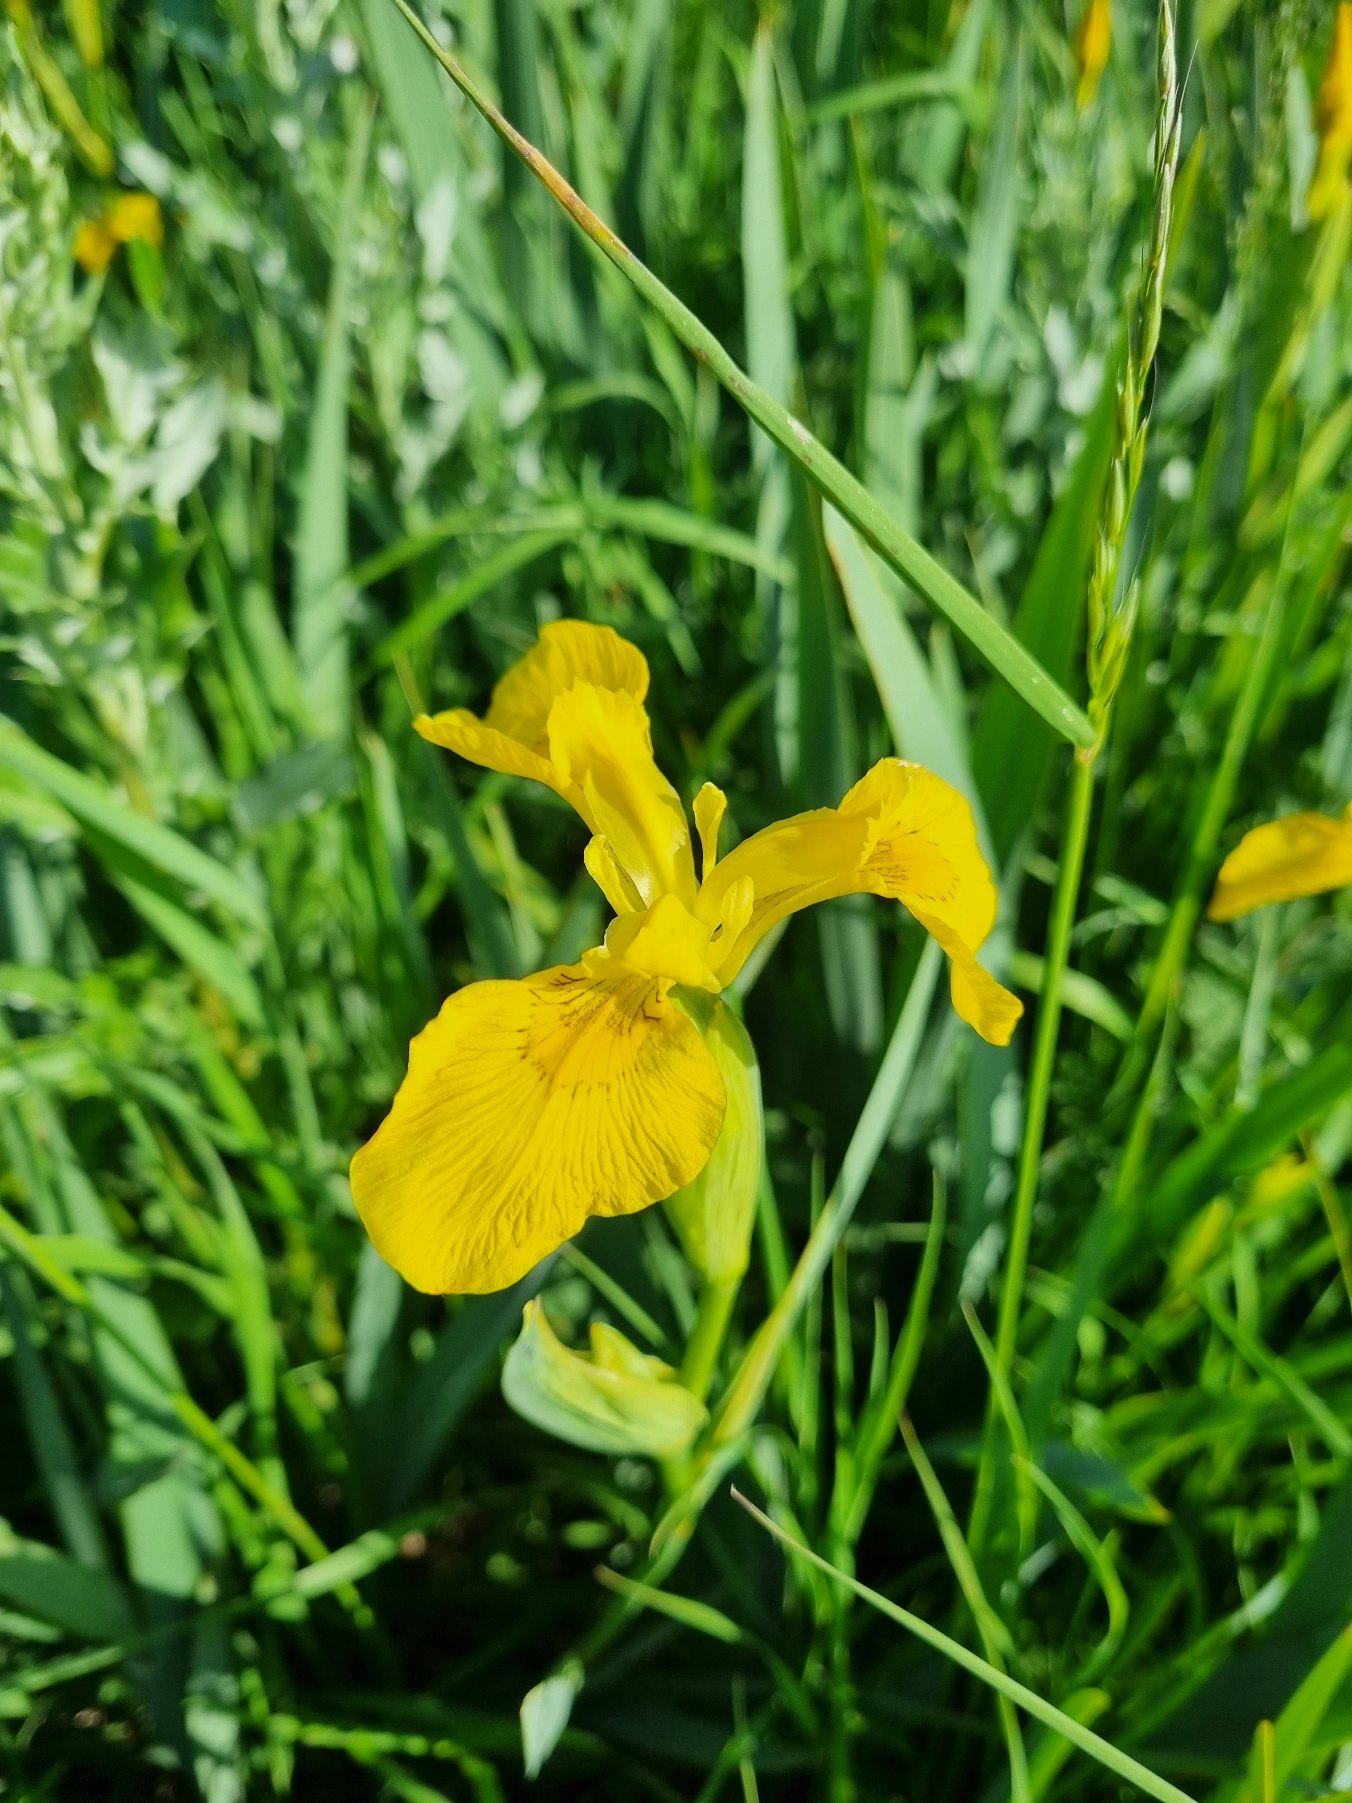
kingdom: Plantae
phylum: Tracheophyta
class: Liliopsida
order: Asparagales
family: Iridaceae
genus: Iris
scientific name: Iris pseudacorus
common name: Gul iris
